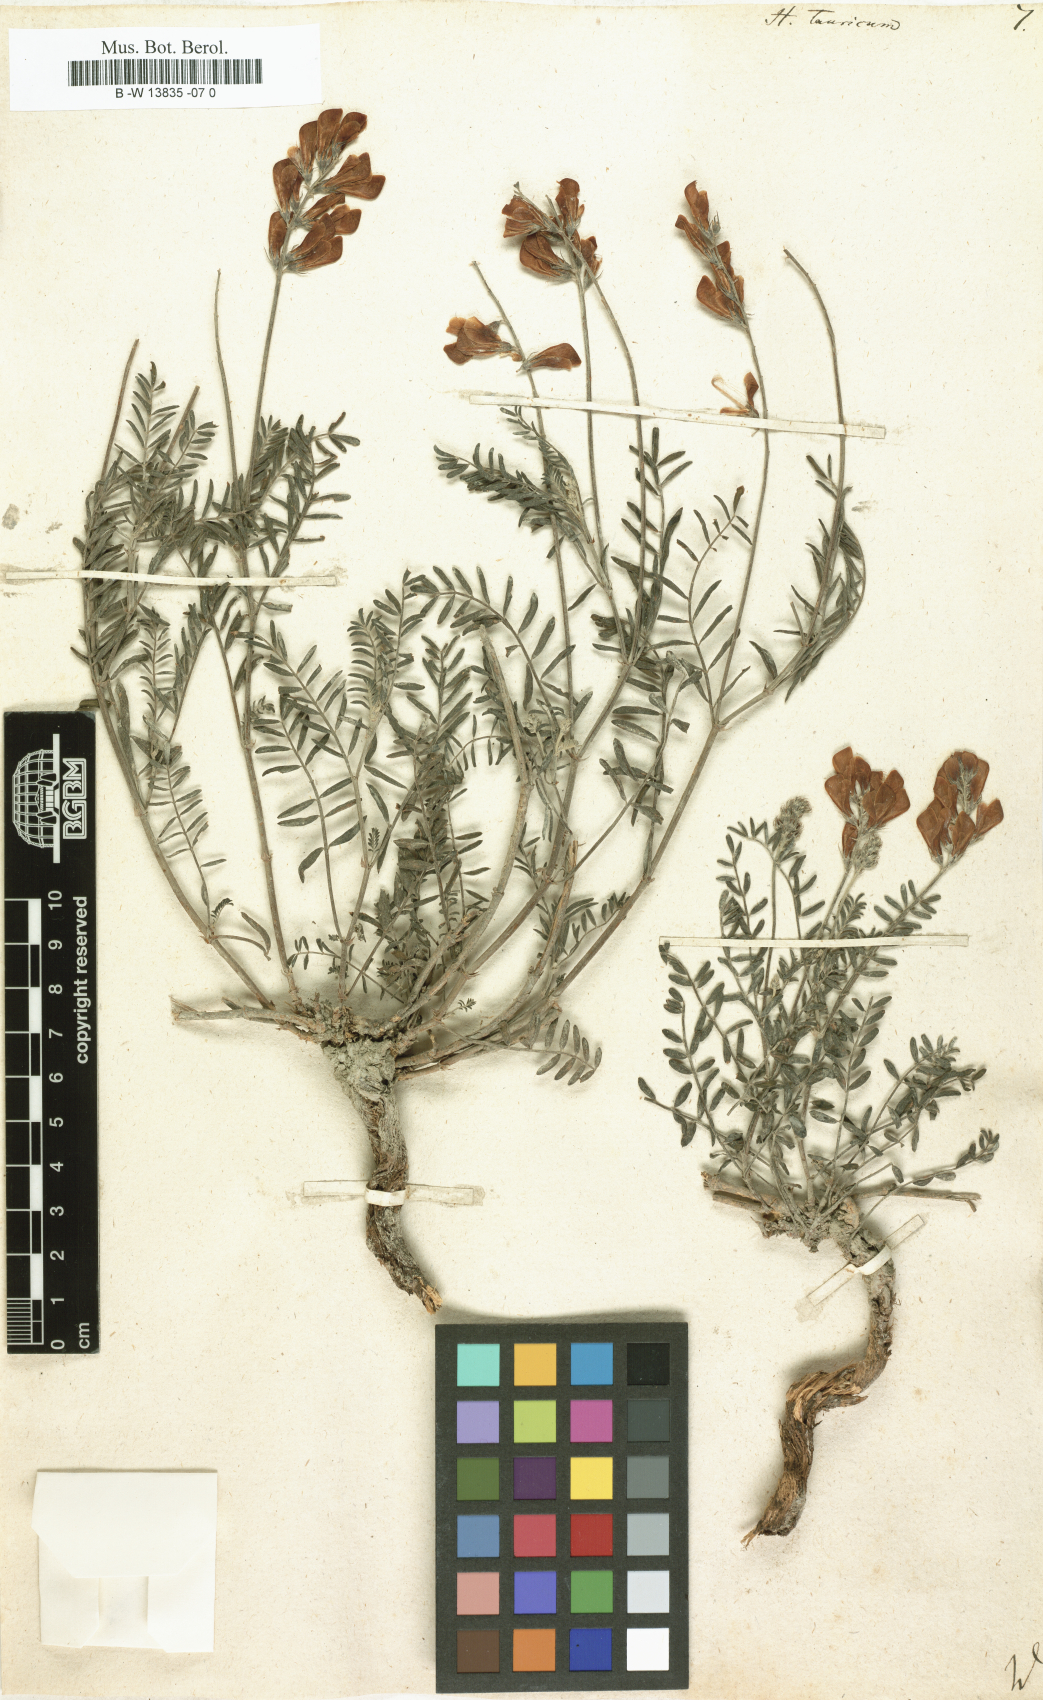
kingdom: Plantae
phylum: Tracheophyta
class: Magnoliopsida
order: Fabales
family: Fabaceae
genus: Hedysarum
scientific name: Hedysarum tauricum
